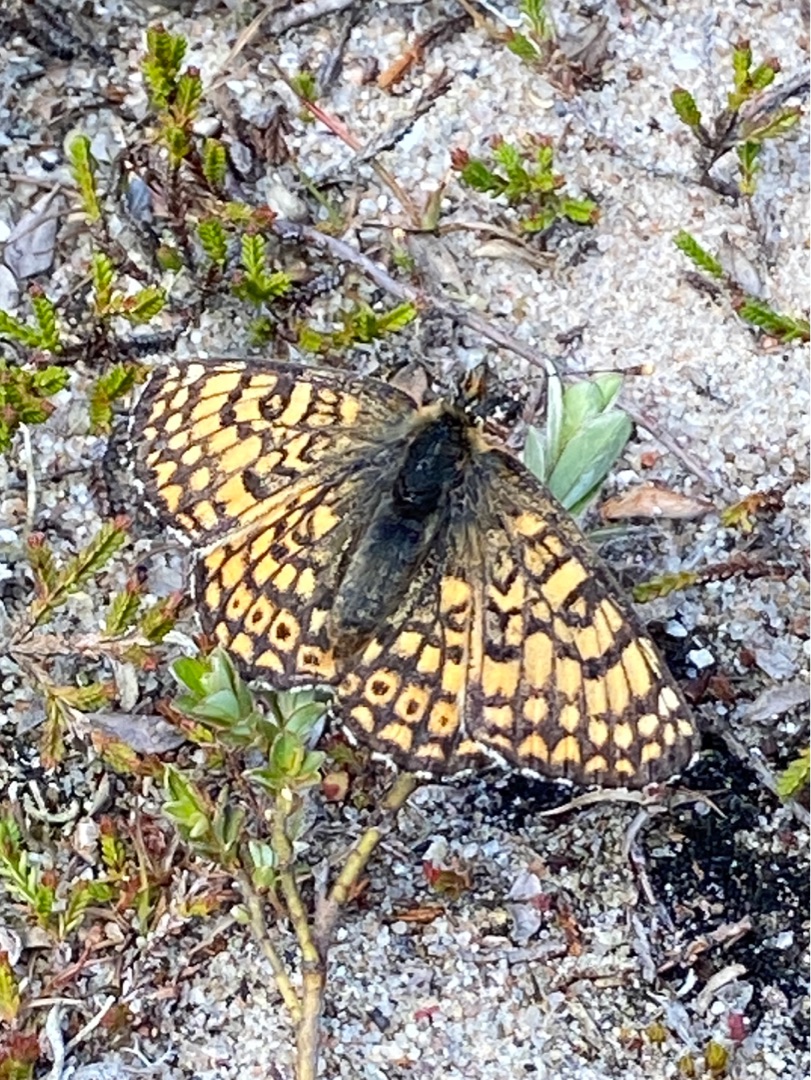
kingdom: Animalia
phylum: Arthropoda
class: Insecta
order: Lepidoptera
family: Nymphalidae
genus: Melitaea
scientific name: Melitaea cinxia
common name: Okkergul pletvinge
